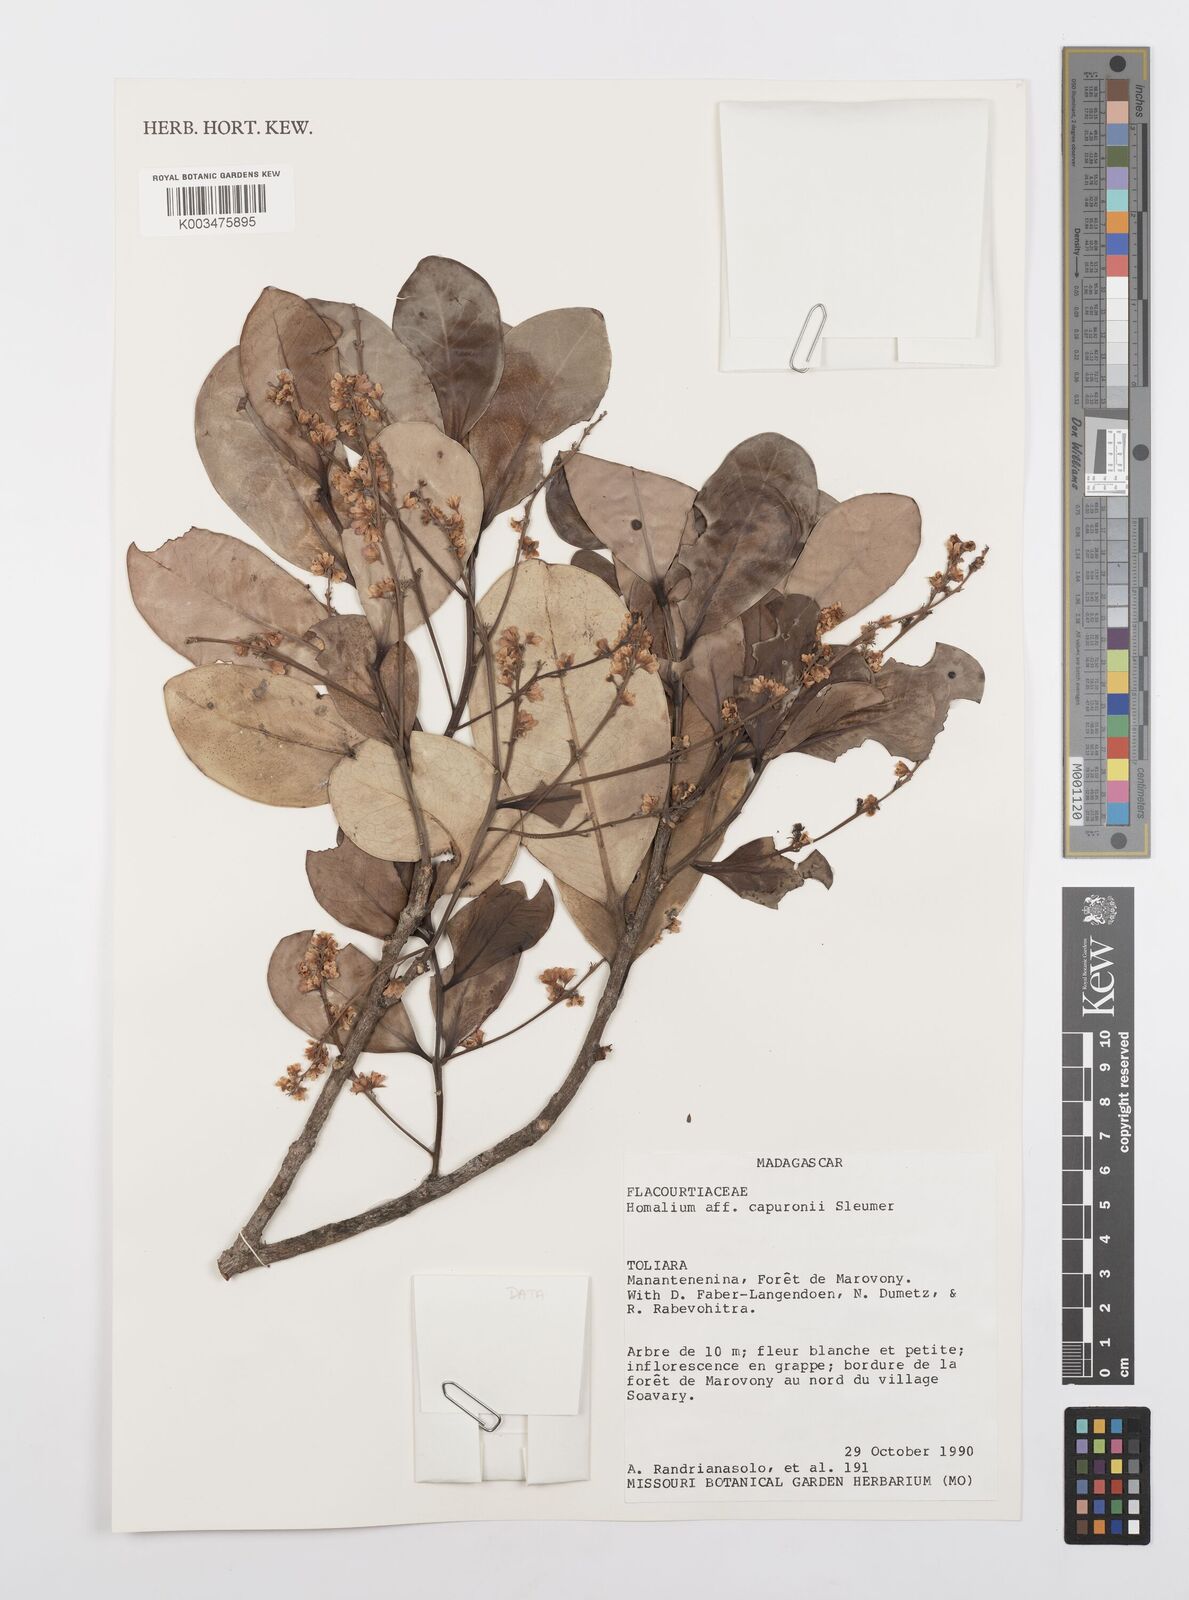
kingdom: Plantae
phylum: Tracheophyta
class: Magnoliopsida
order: Malpighiales
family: Salicaceae
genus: Homalium
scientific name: Homalium capuronii
